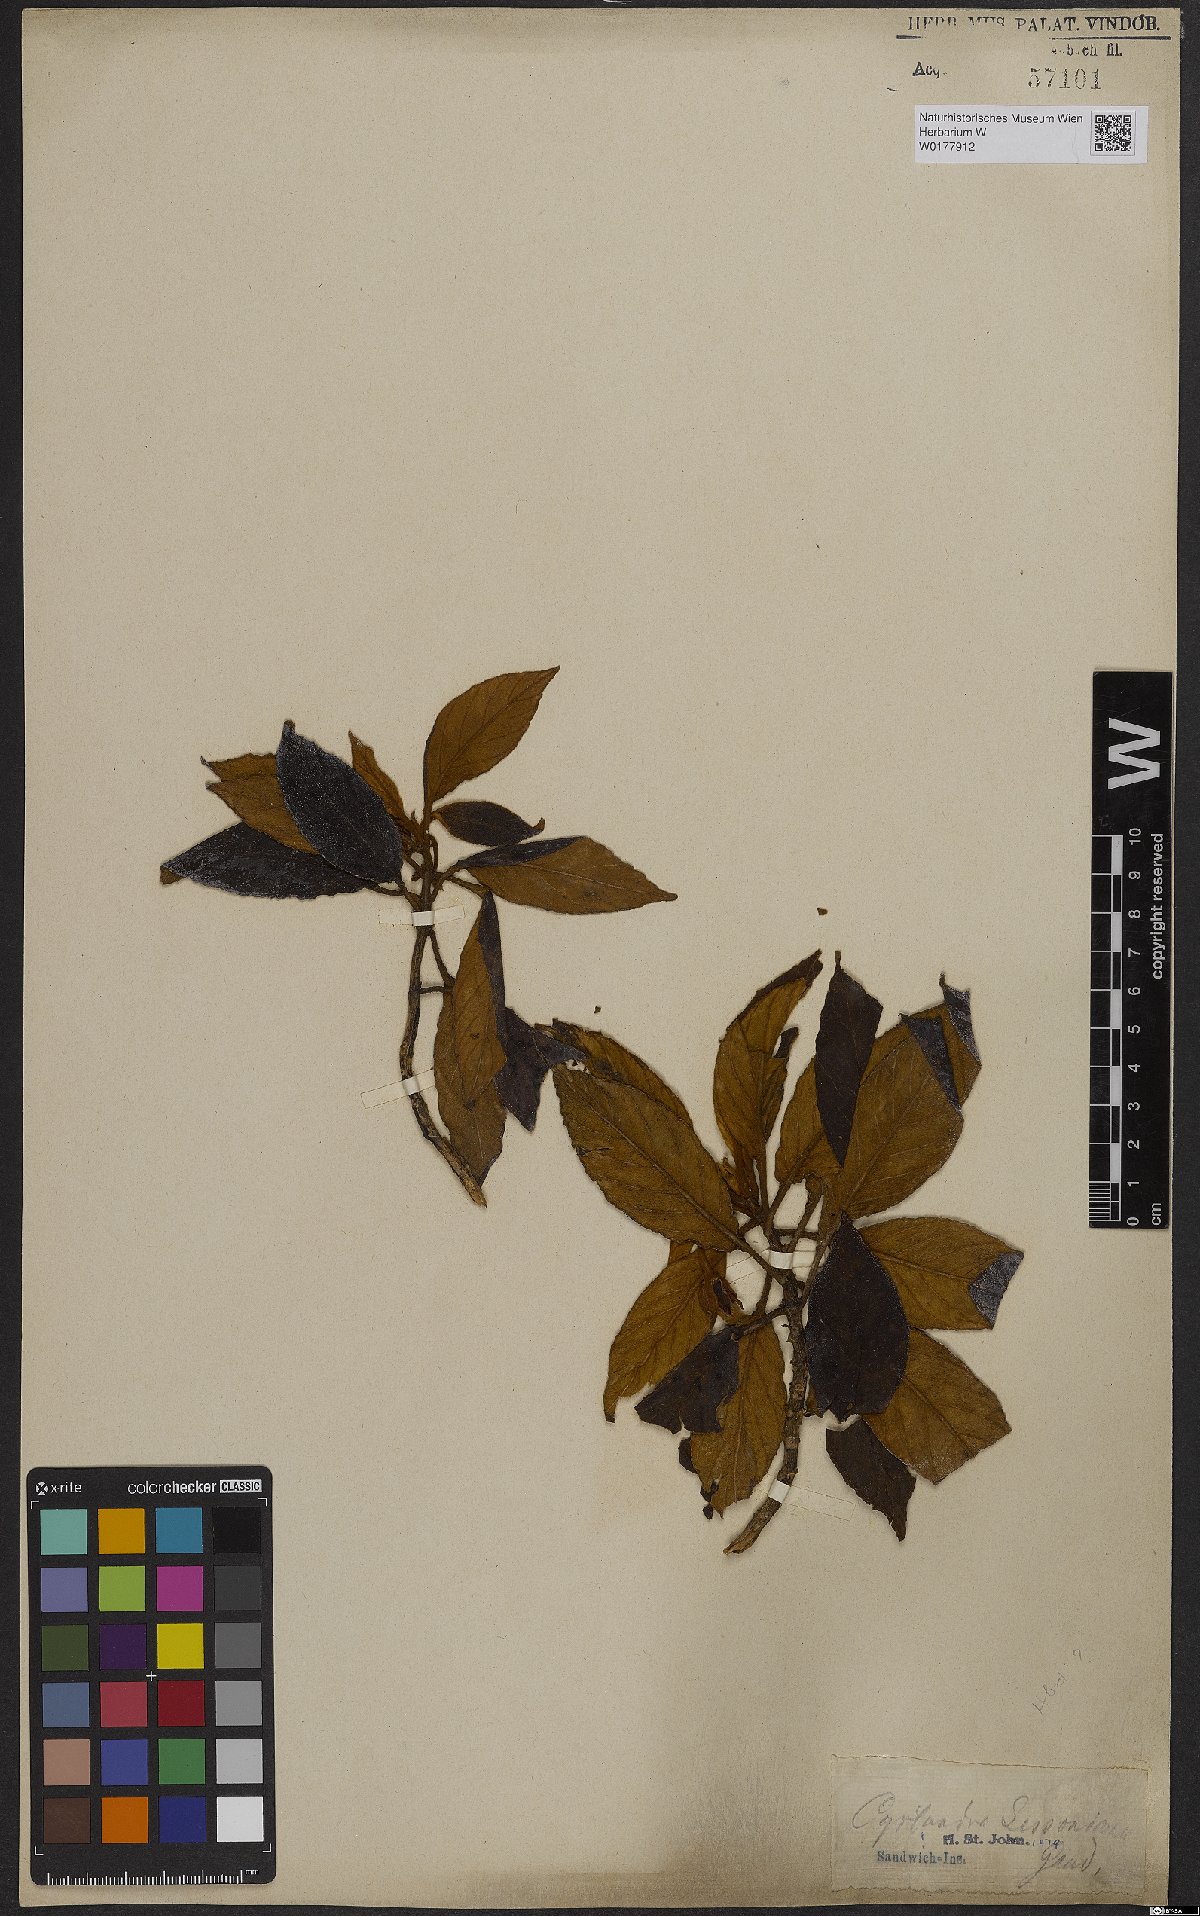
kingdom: Plantae
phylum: Tracheophyta
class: Magnoliopsida
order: Lamiales
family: Gesneriaceae
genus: Cyrtandra
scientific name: Cyrtandra lessoniana
